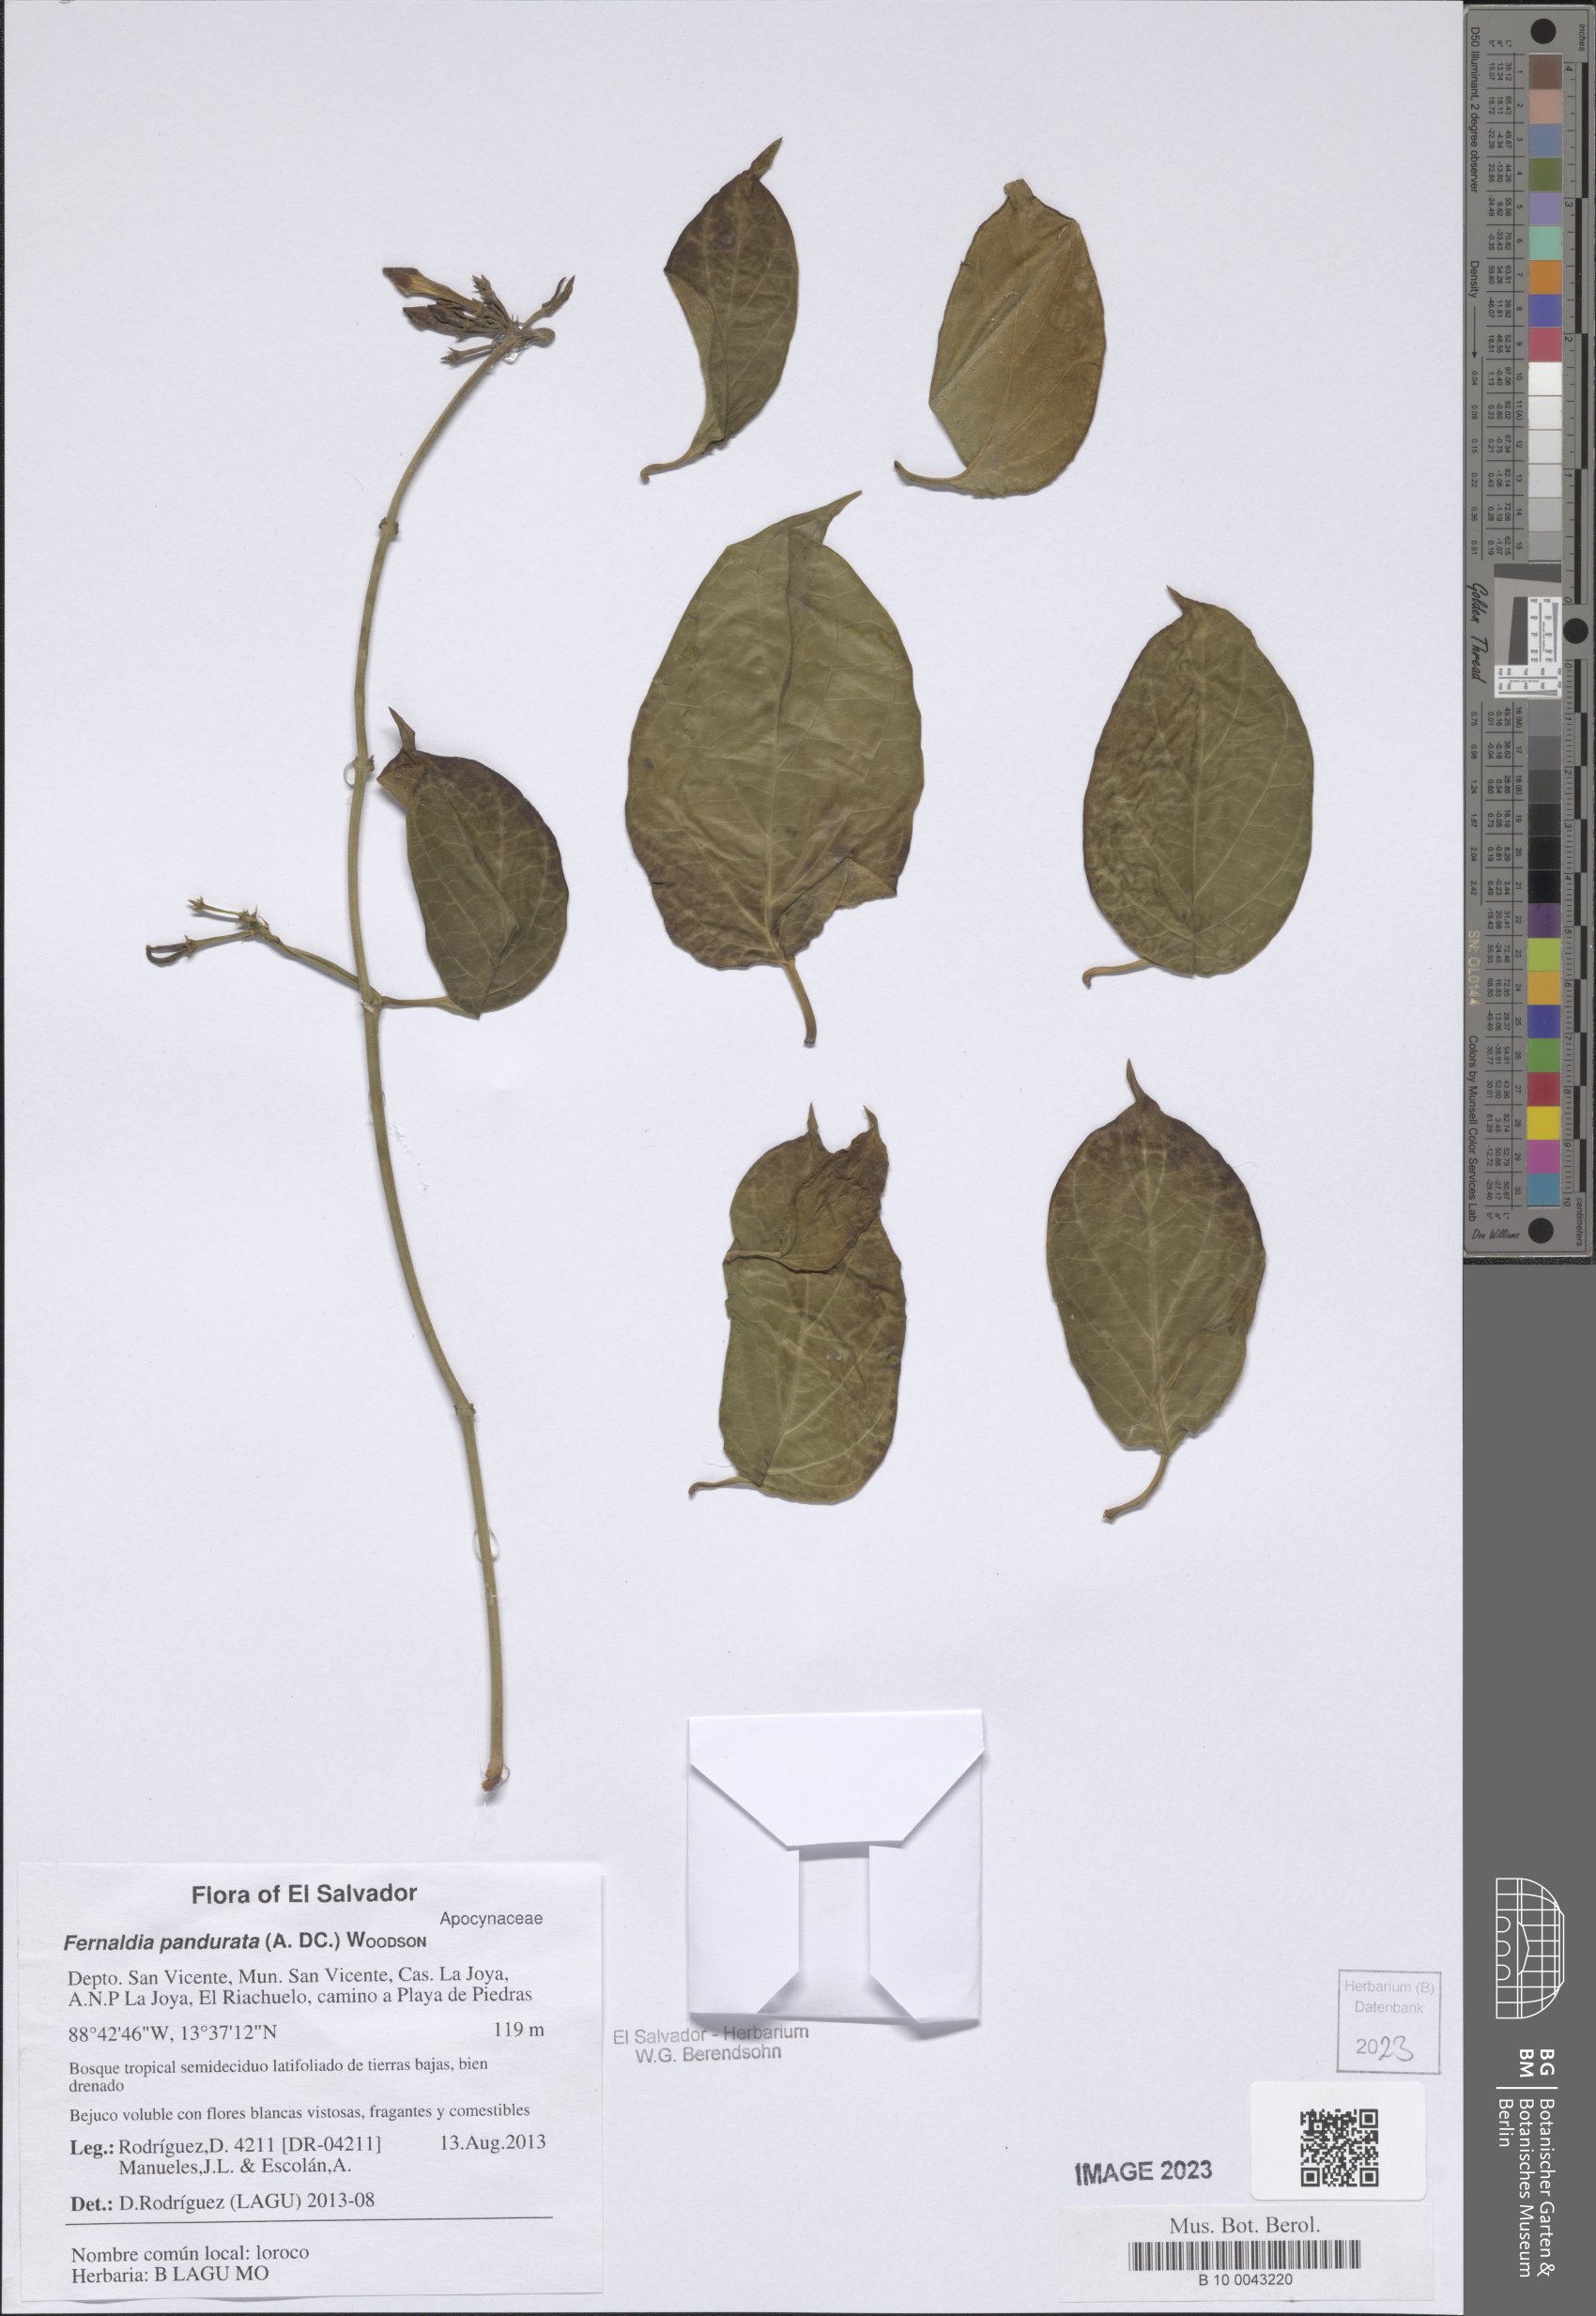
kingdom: Plantae
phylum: Tracheophyta
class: Magnoliopsida
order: Gentianales
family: Apocynaceae
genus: Echites
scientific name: Echites panduratus
